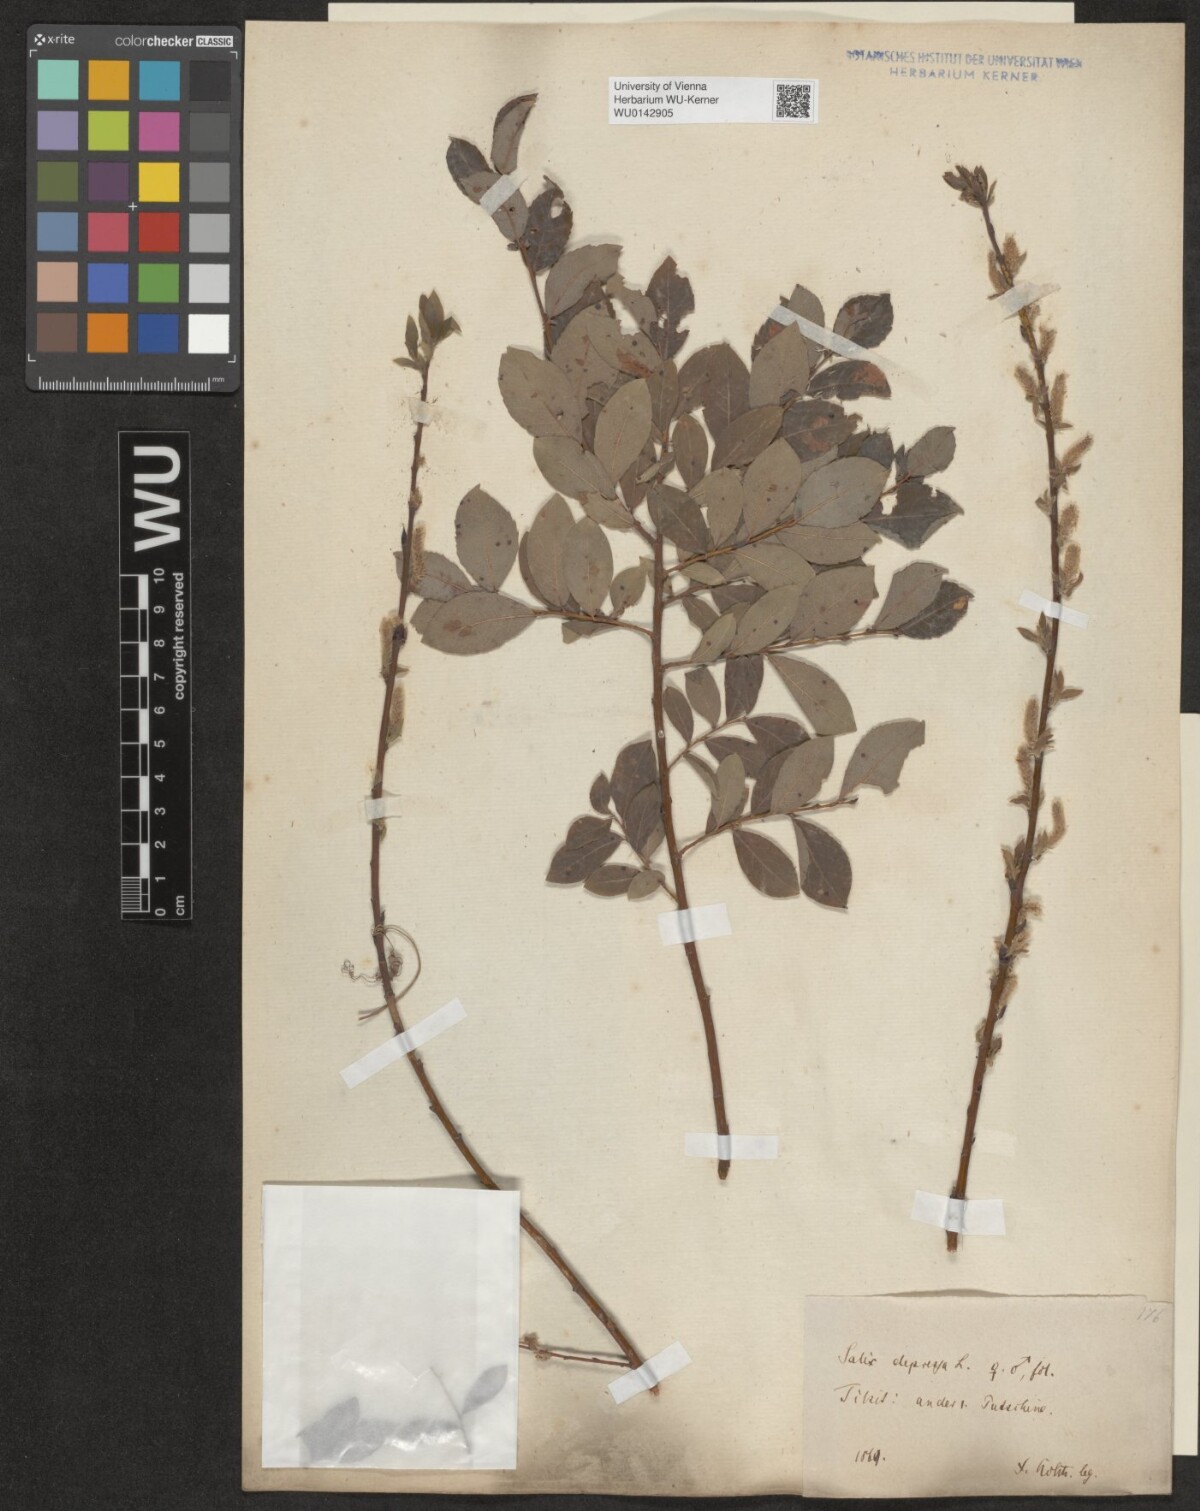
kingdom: Plantae
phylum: Tracheophyta
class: Magnoliopsida
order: Malpighiales
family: Salicaceae
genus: Salix
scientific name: Salix starkeana
